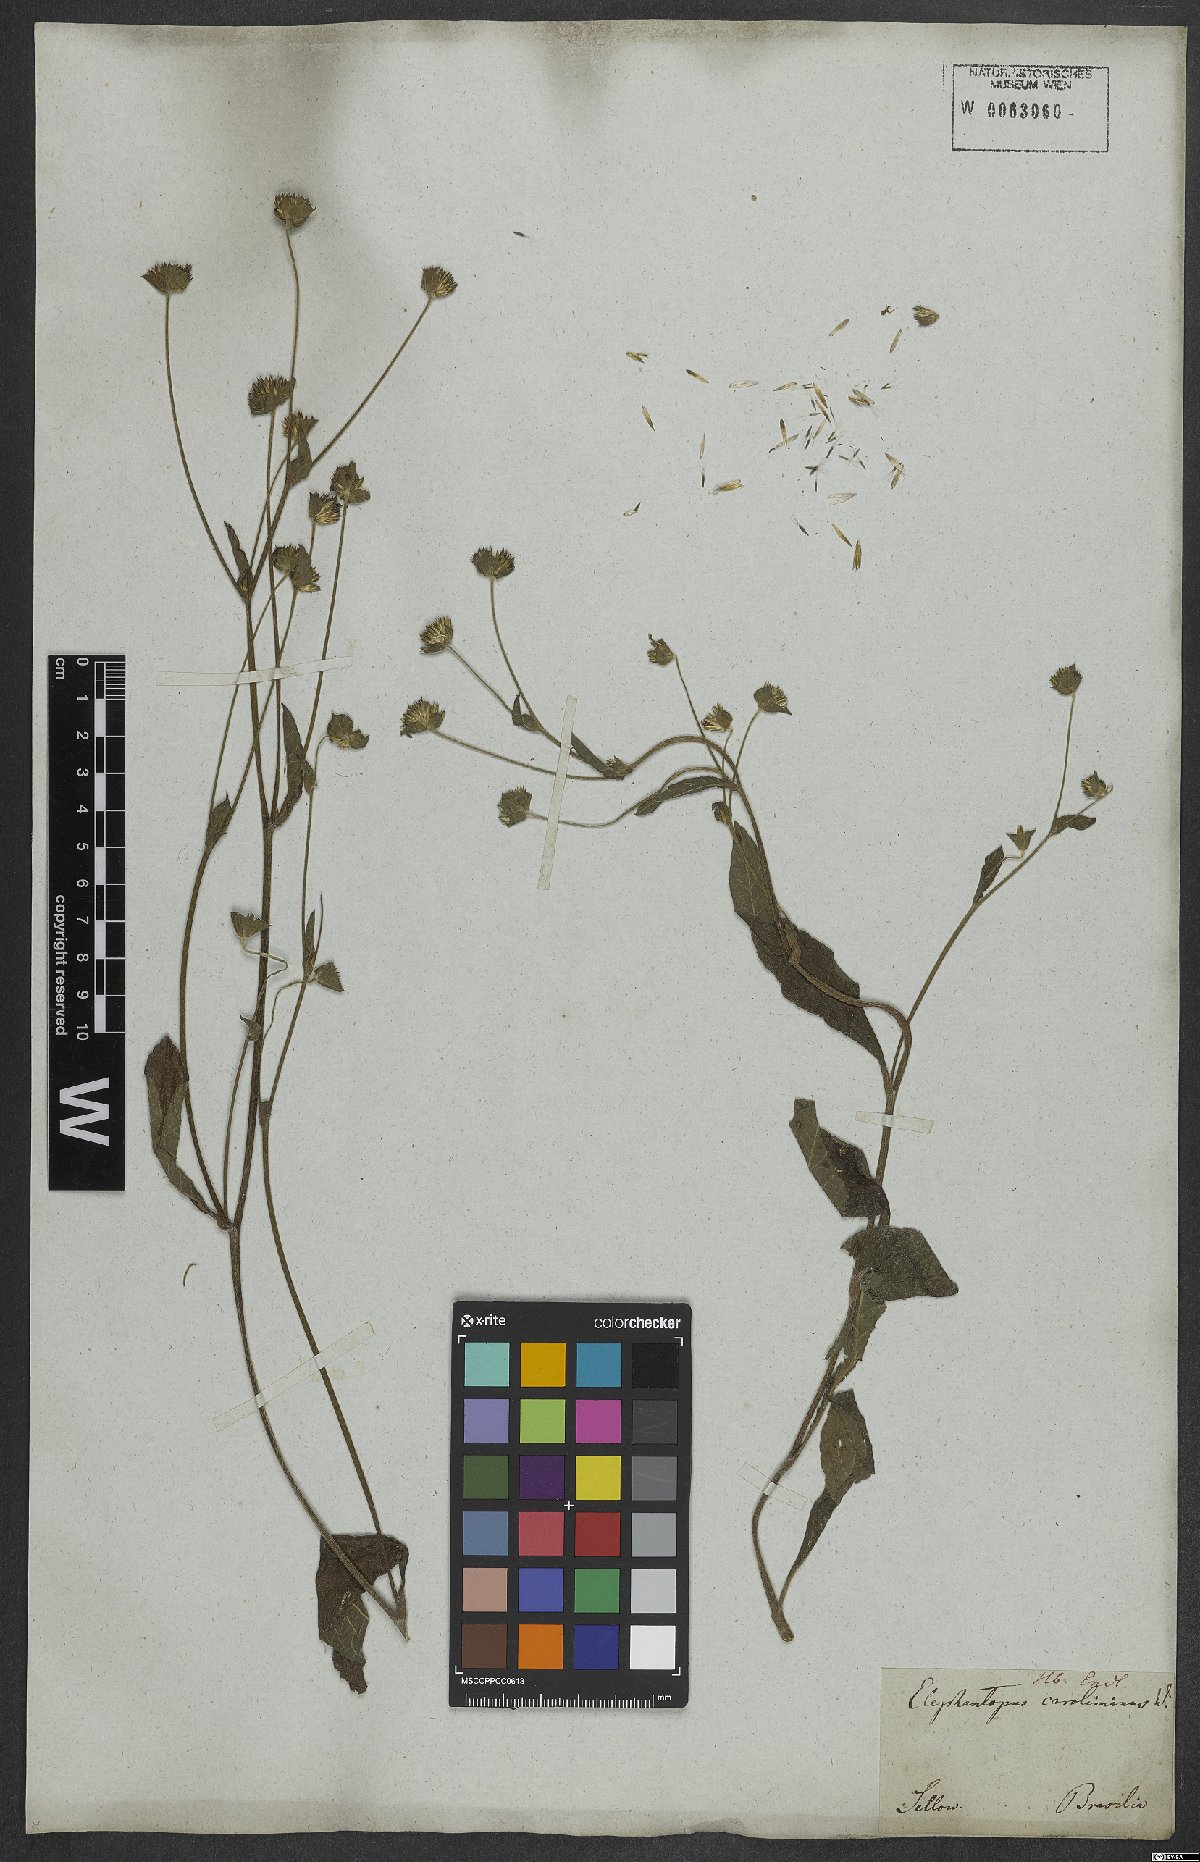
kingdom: Plantae
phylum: Tracheophyta
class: Magnoliopsida
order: Asterales
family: Asteraceae
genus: Elephantopus
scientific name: Elephantopus carolinianus
